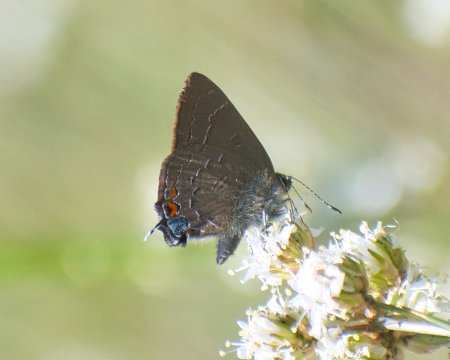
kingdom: Animalia
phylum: Arthropoda
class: Insecta
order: Lepidoptera
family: Lycaenidae
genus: Satyrium
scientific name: Satyrium calanus
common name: Banded Hairstreak
